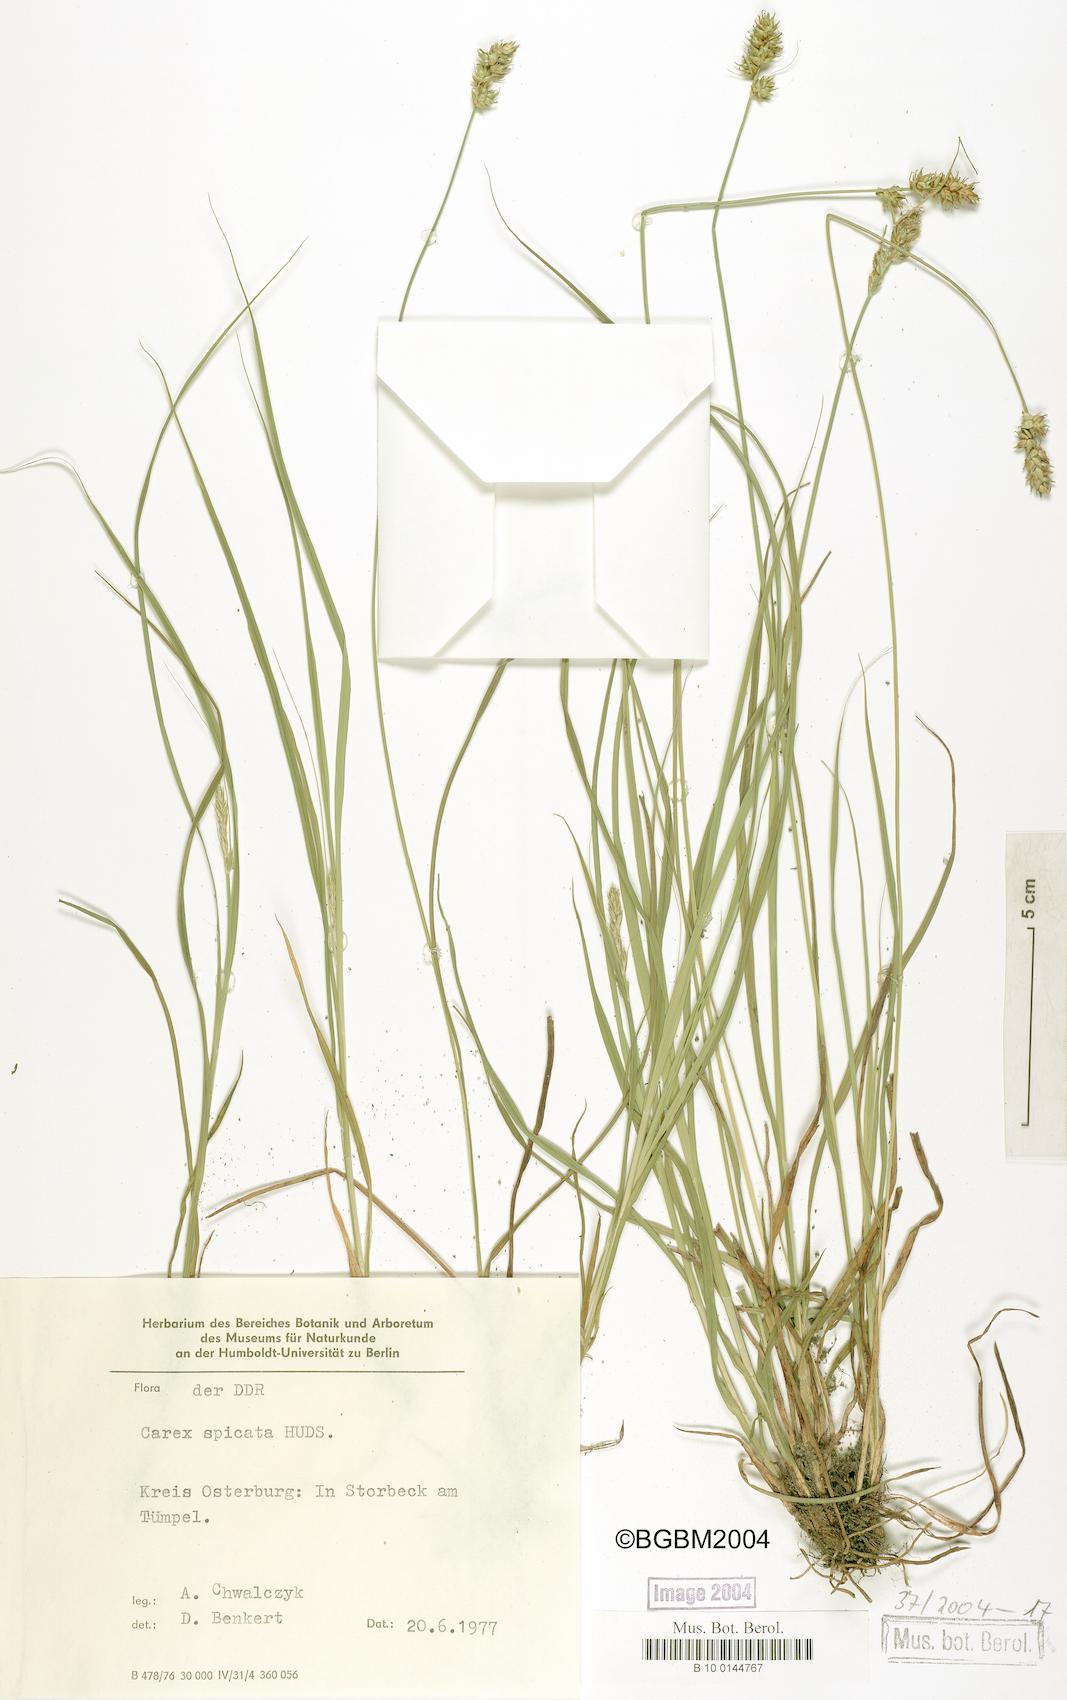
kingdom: Plantae
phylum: Tracheophyta
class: Liliopsida
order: Poales
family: Cyperaceae
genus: Carex
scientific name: Carex spicata
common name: Spiked sedge
